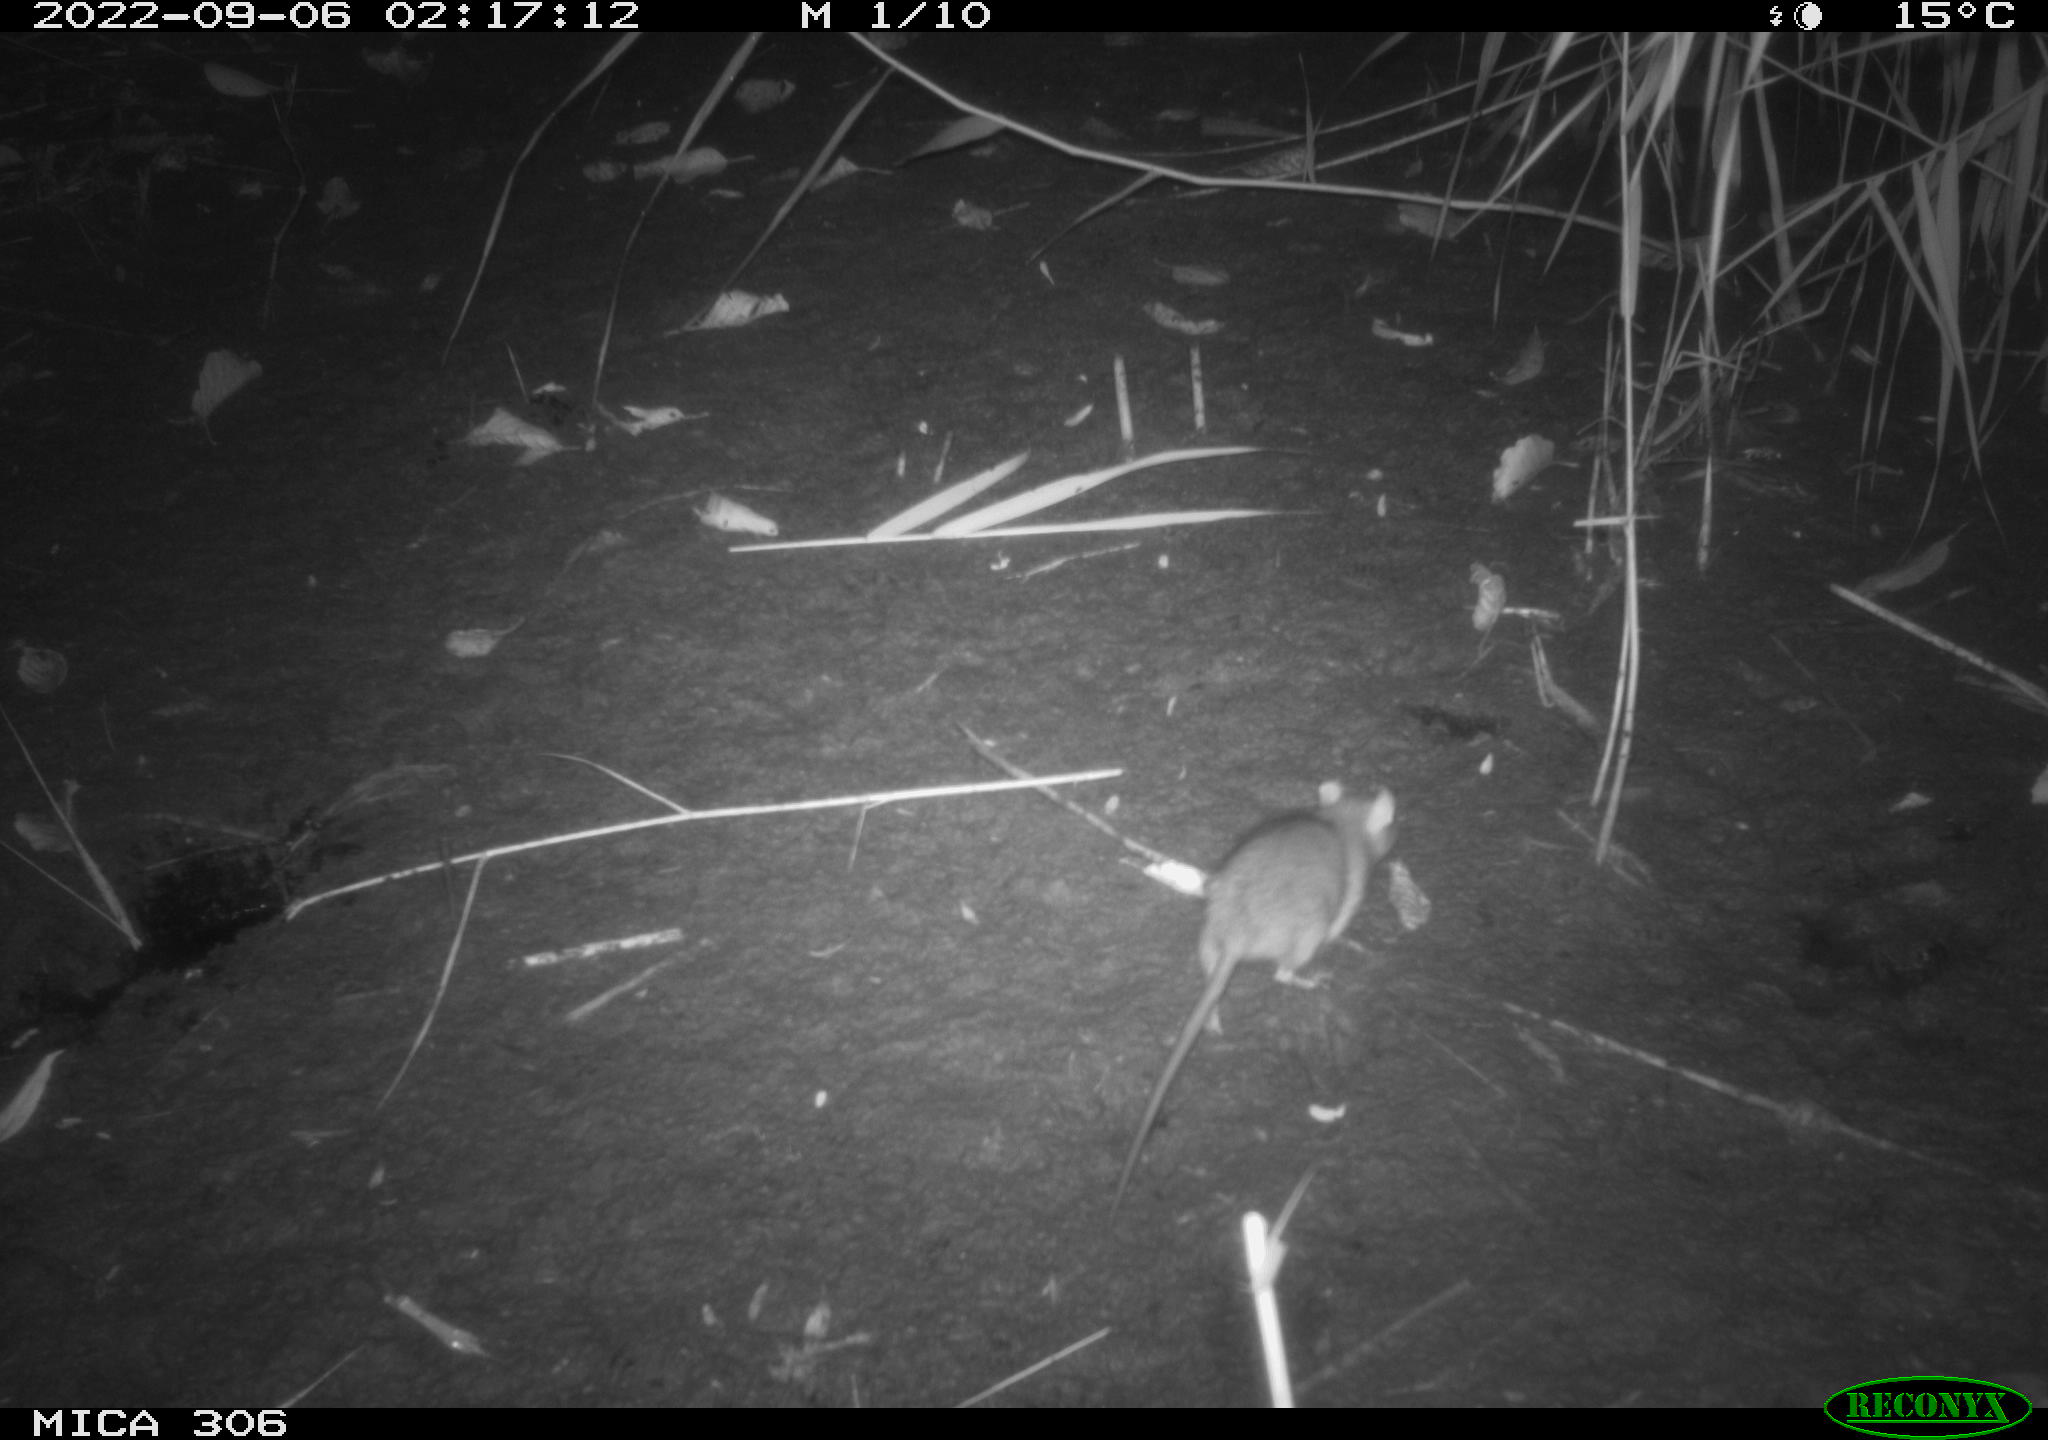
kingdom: Animalia
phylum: Chordata
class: Mammalia
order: Rodentia
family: Muridae
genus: Rattus
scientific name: Rattus norvegicus
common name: Brown rat
